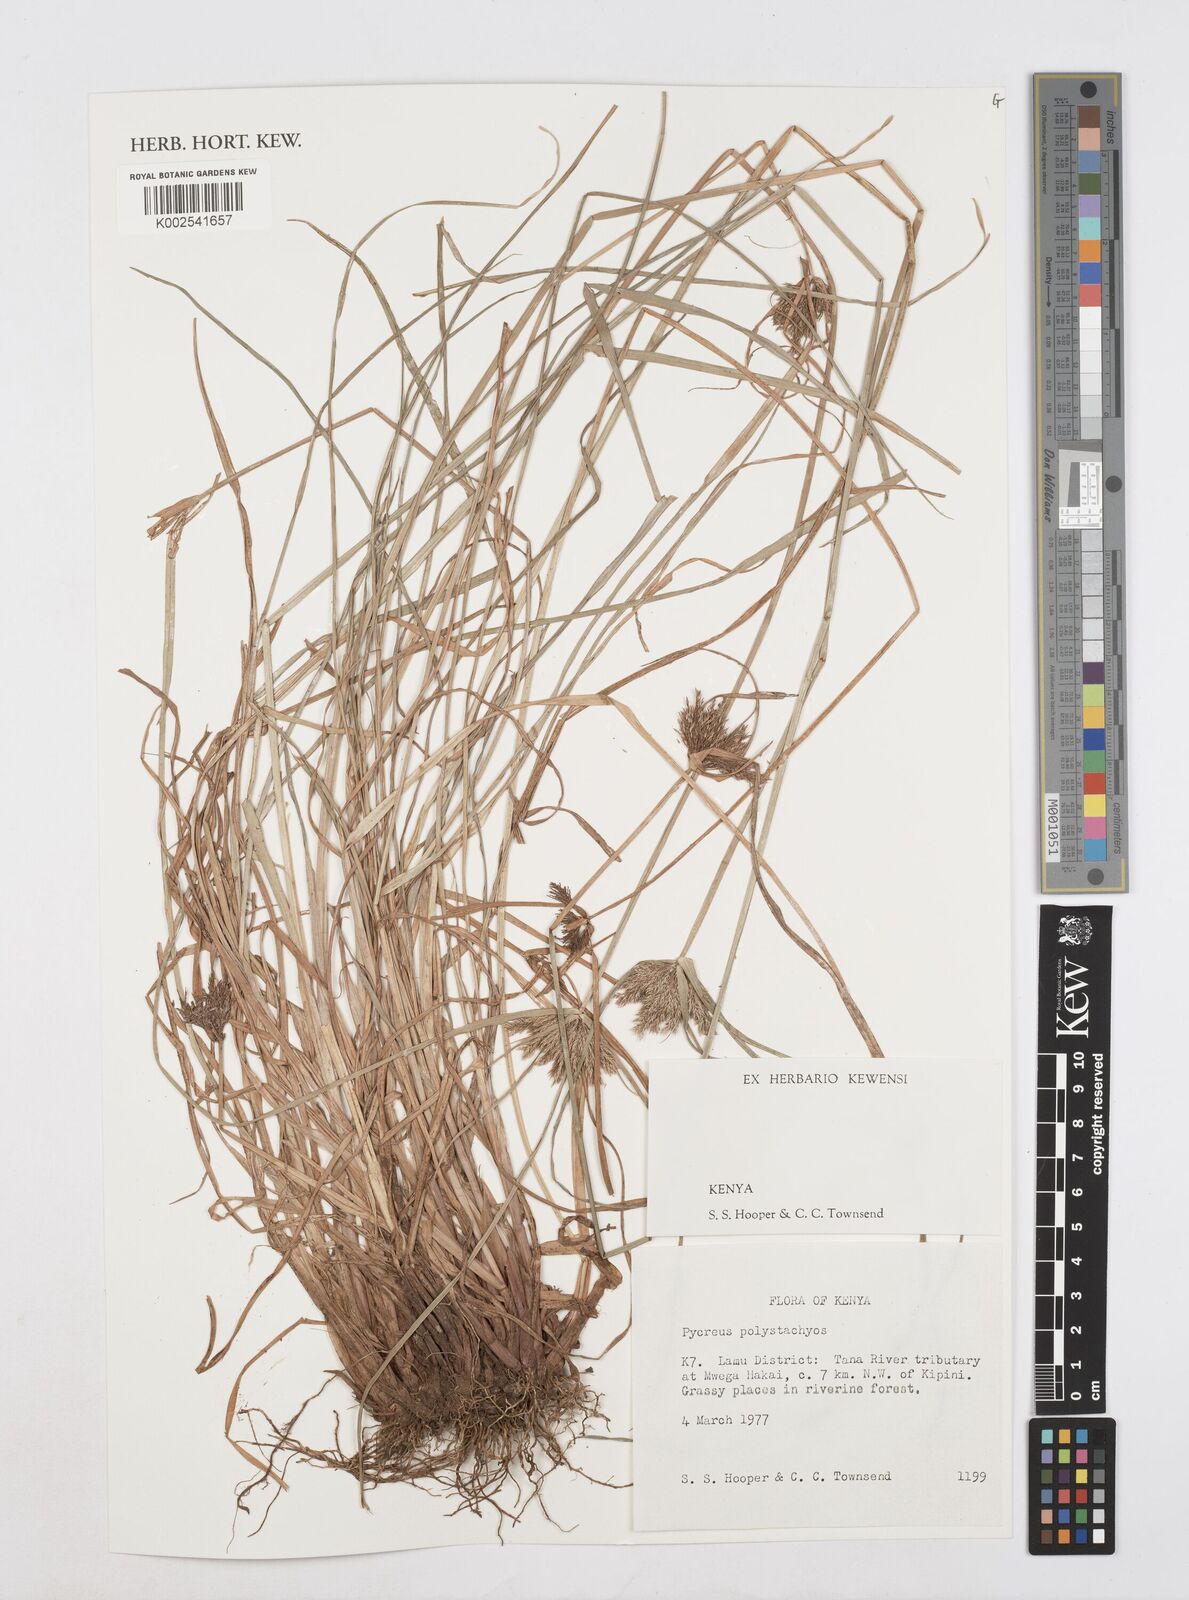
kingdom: Plantae
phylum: Tracheophyta
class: Liliopsida
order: Poales
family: Cyperaceae
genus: Cyperus
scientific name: Cyperus polystachyos
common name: Bunchy flat sedge
